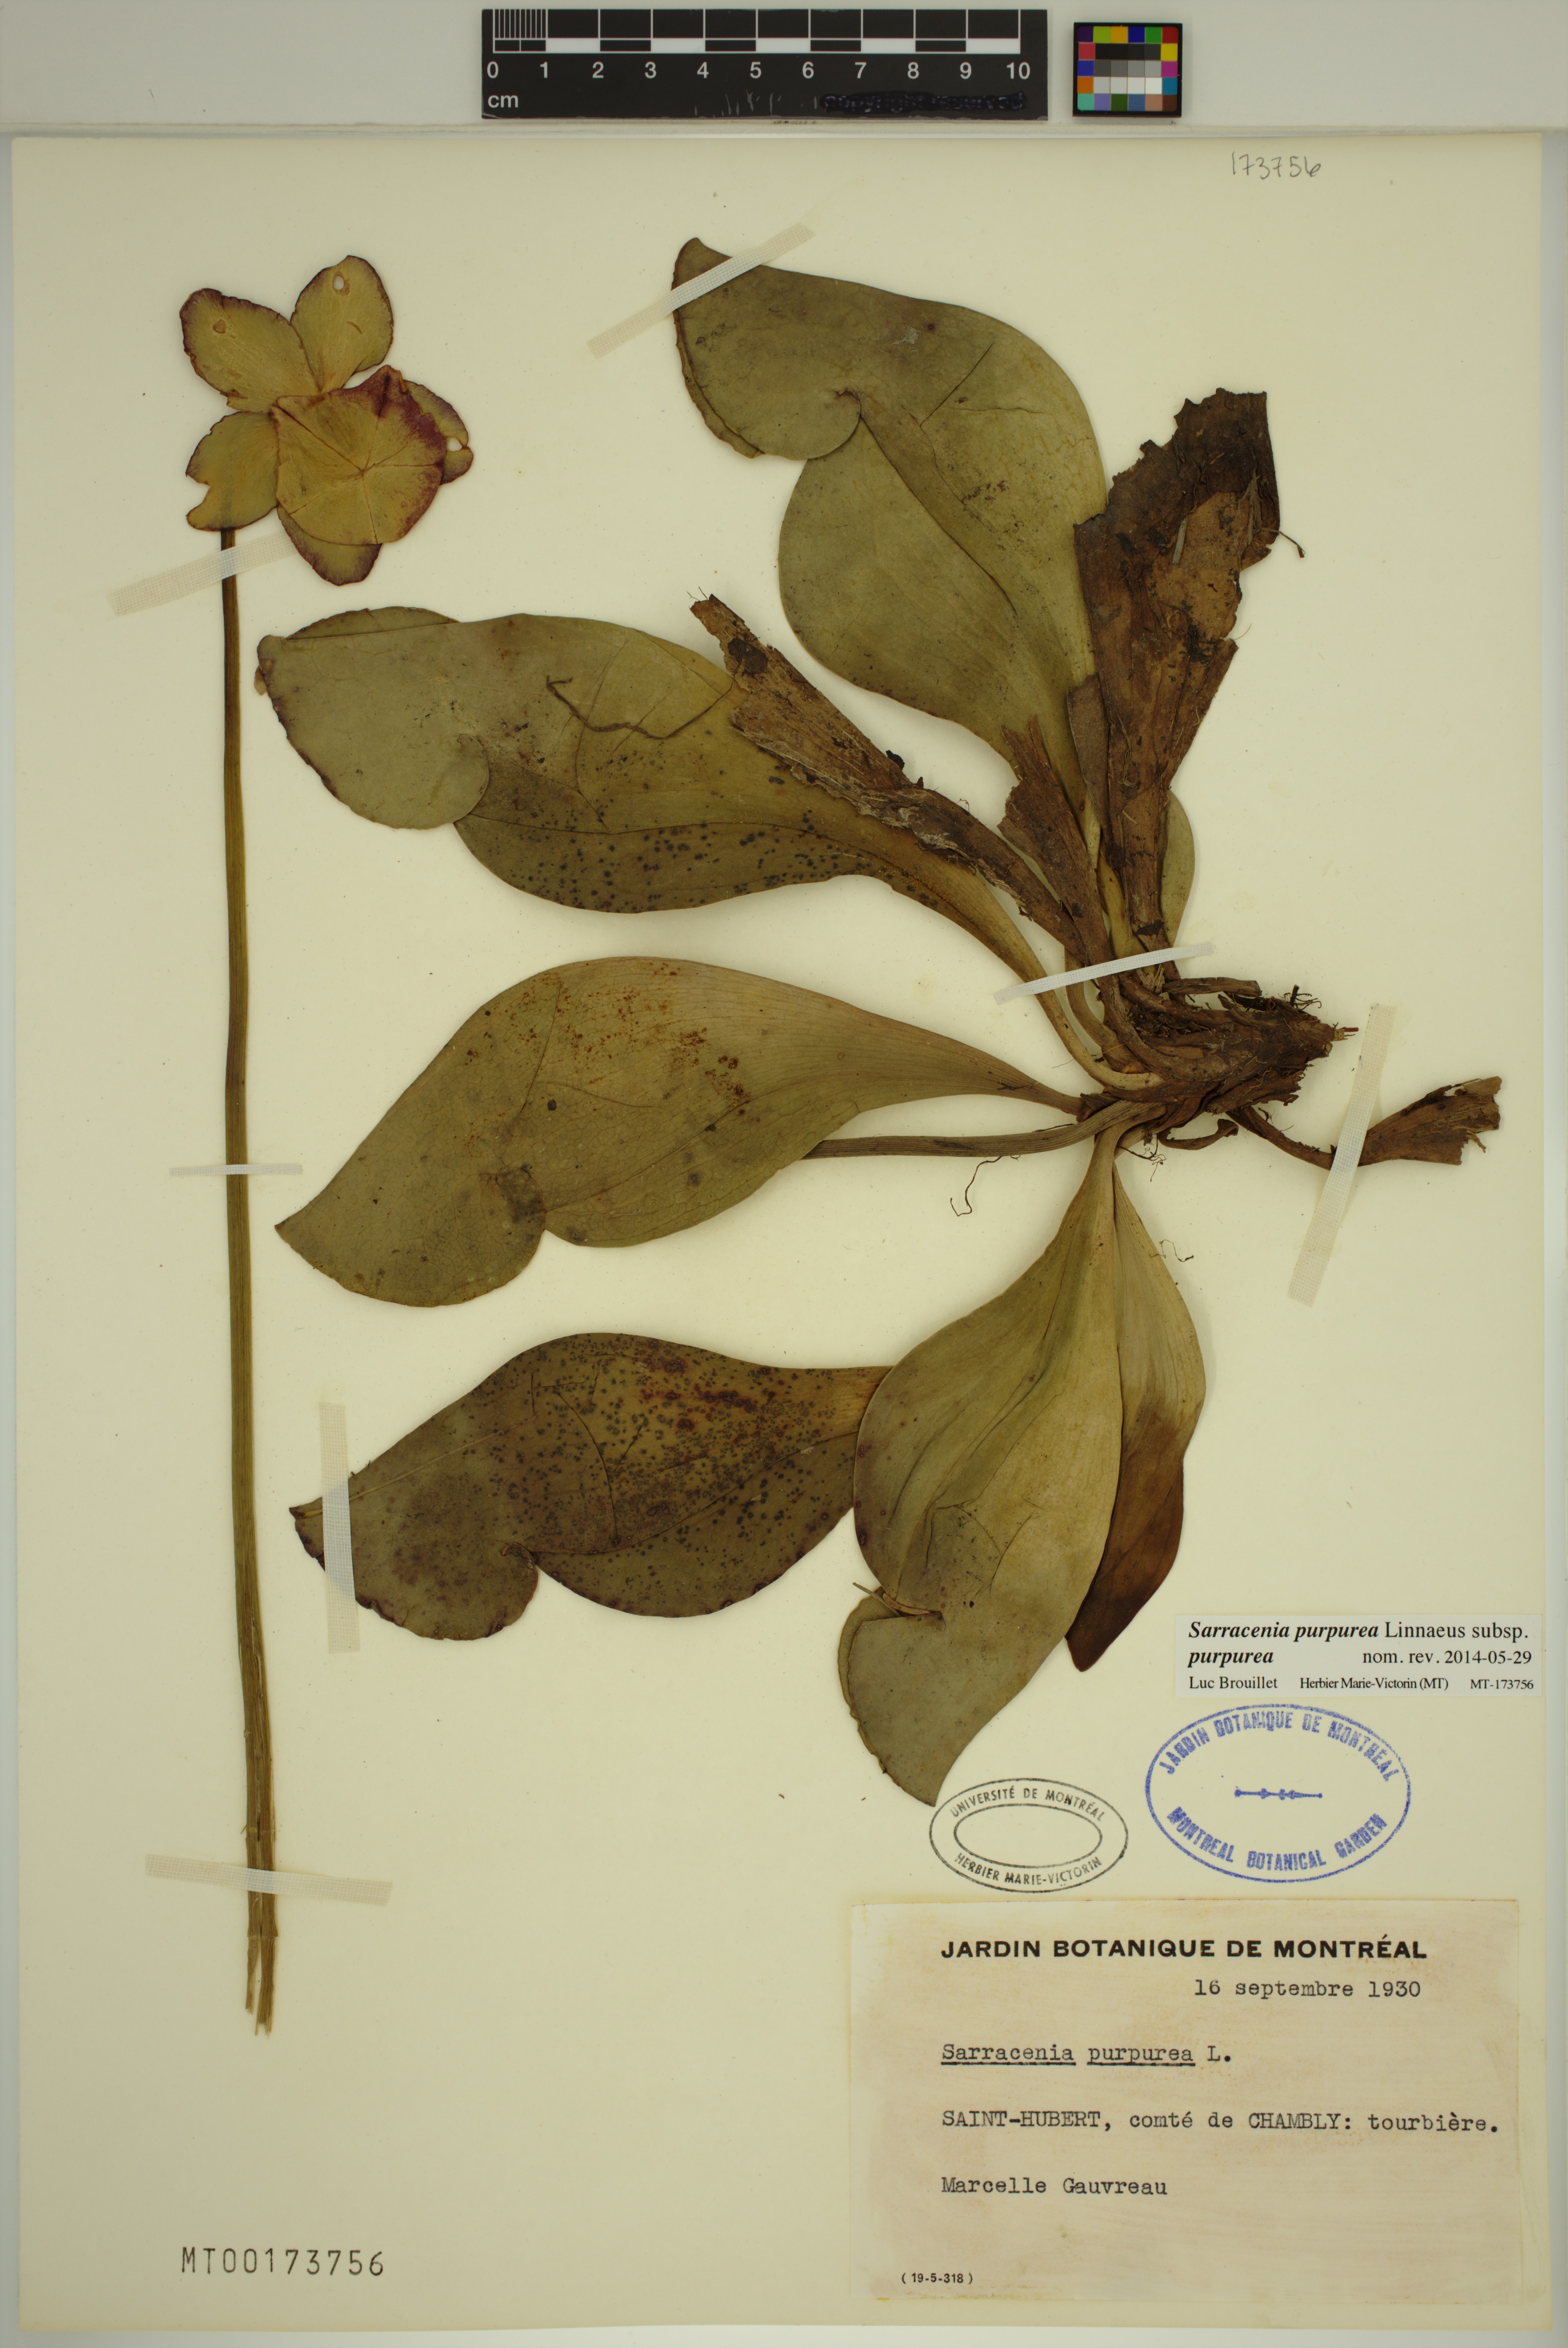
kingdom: Plantae
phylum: Tracheophyta
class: Magnoliopsida
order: Ericales
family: Sarraceniaceae
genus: Sarracenia
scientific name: Sarracenia purpurea
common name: Pitcherplant
